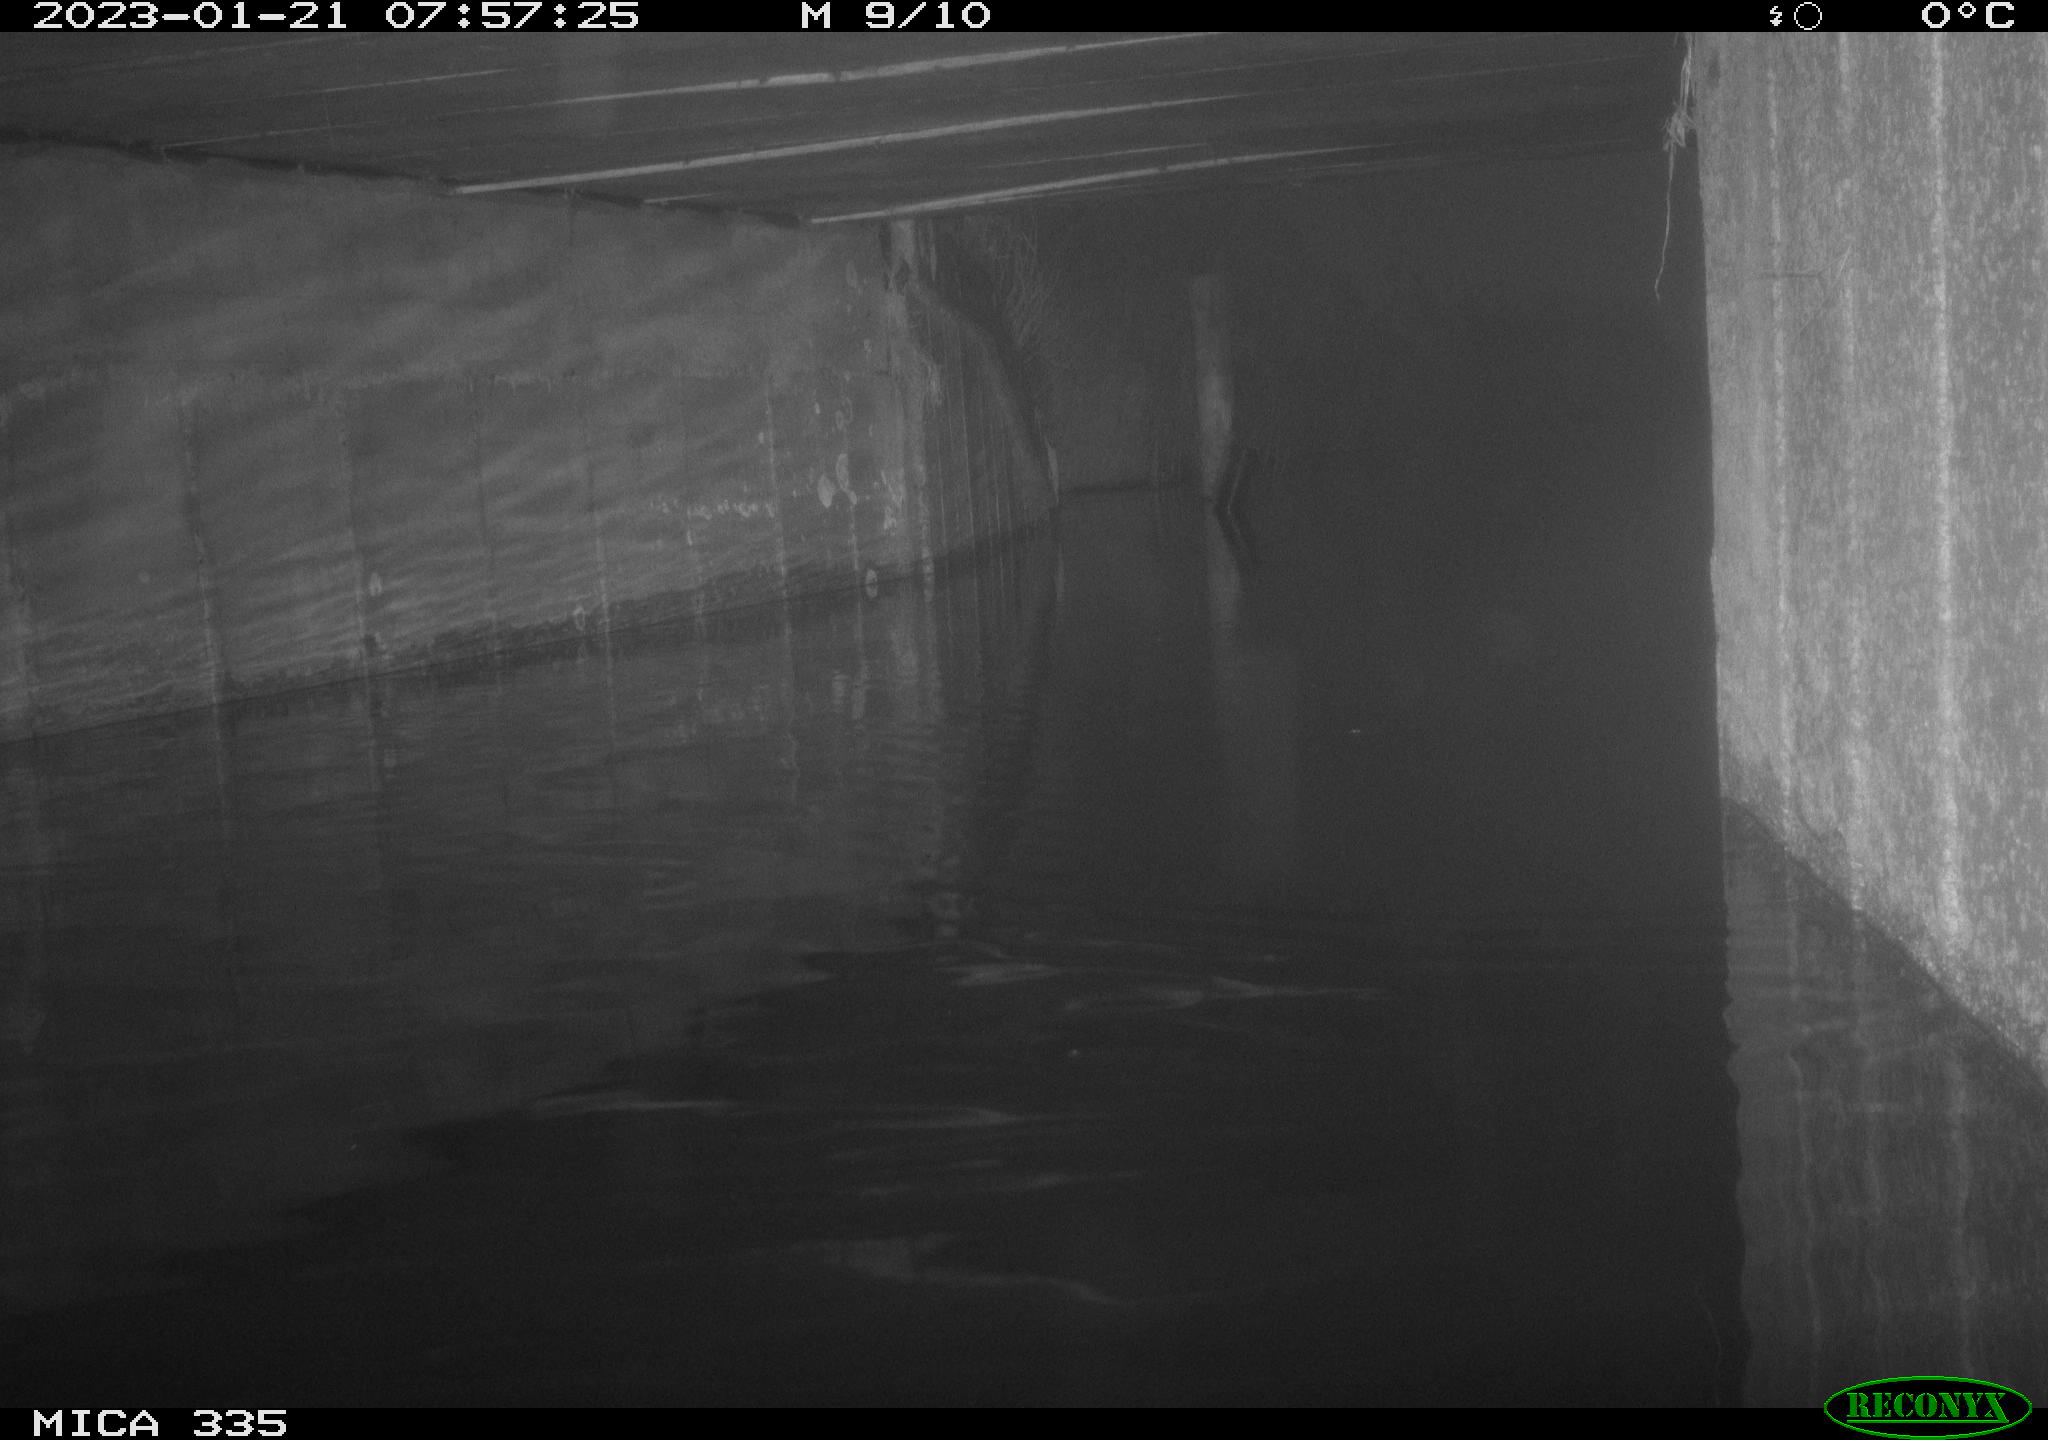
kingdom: Animalia
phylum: Chordata
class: Aves
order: Anseriformes
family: Anatidae
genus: Anas
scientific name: Anas
